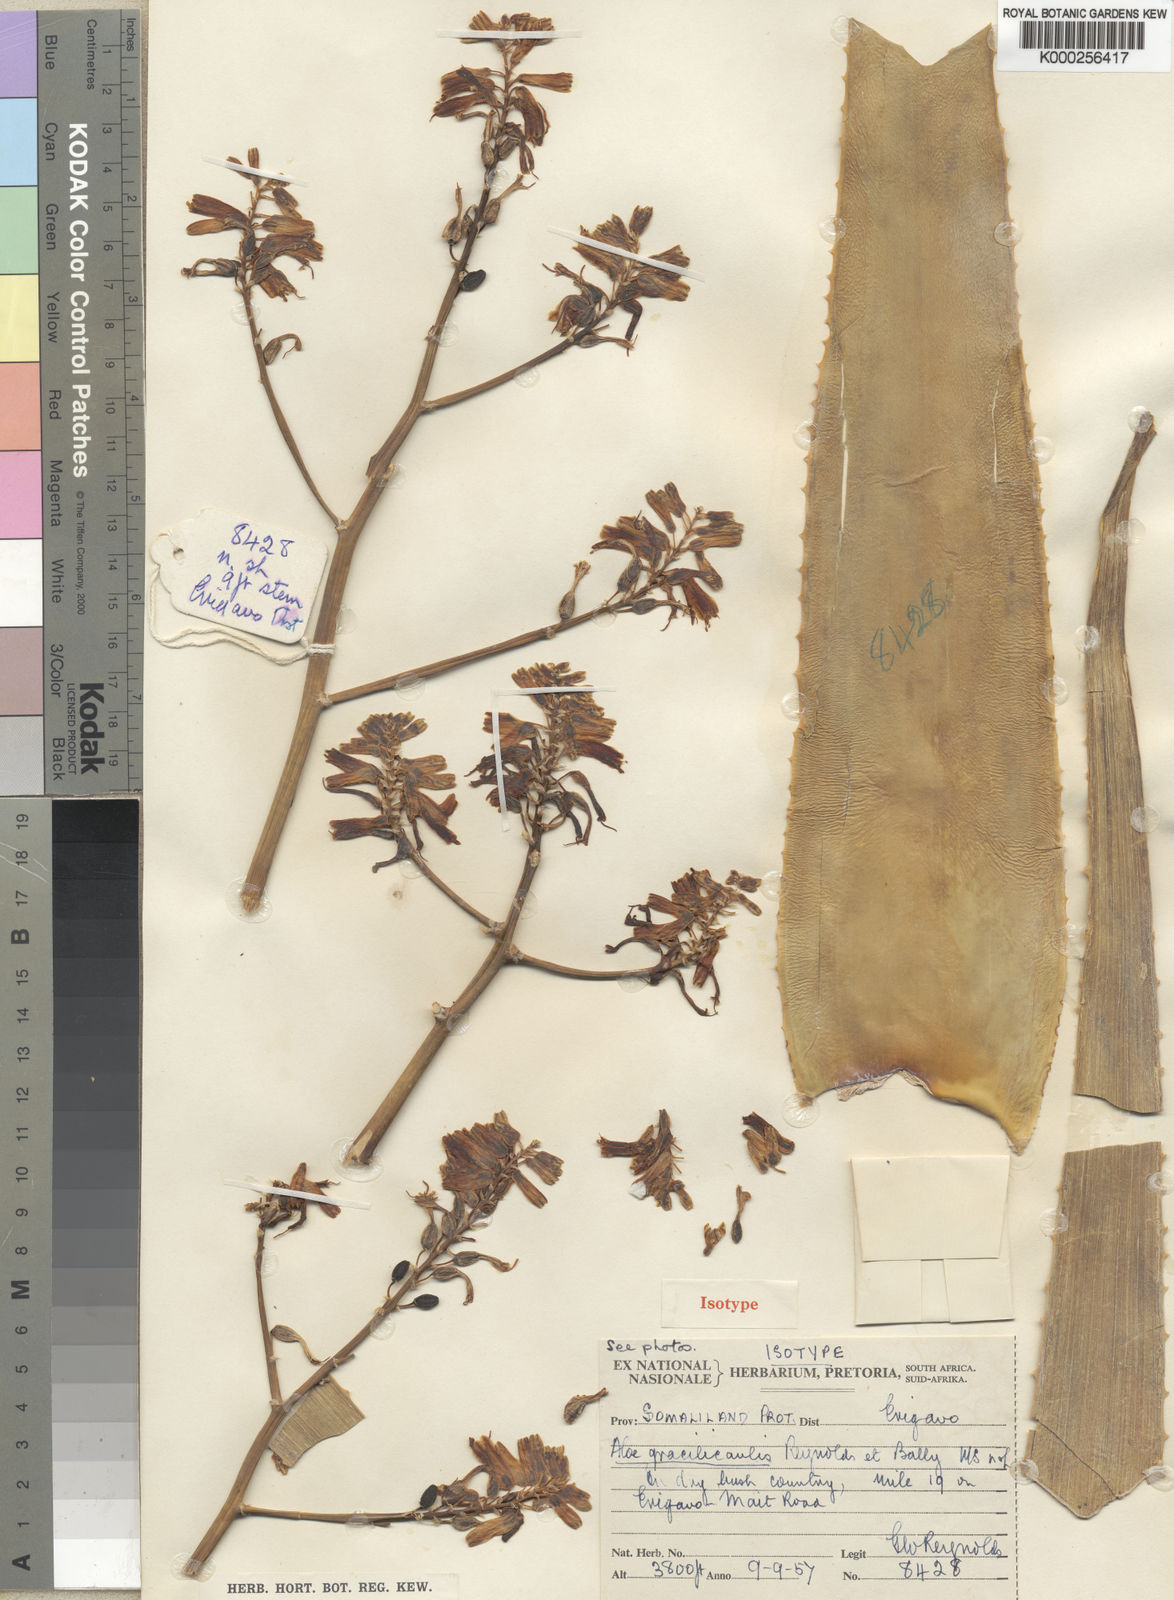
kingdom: Plantae
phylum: Tracheophyta
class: Liliopsida
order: Asparagales
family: Asphodelaceae
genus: Aloe
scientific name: Aloe gracilicaulis
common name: Soft distant sword-leaved aloe
